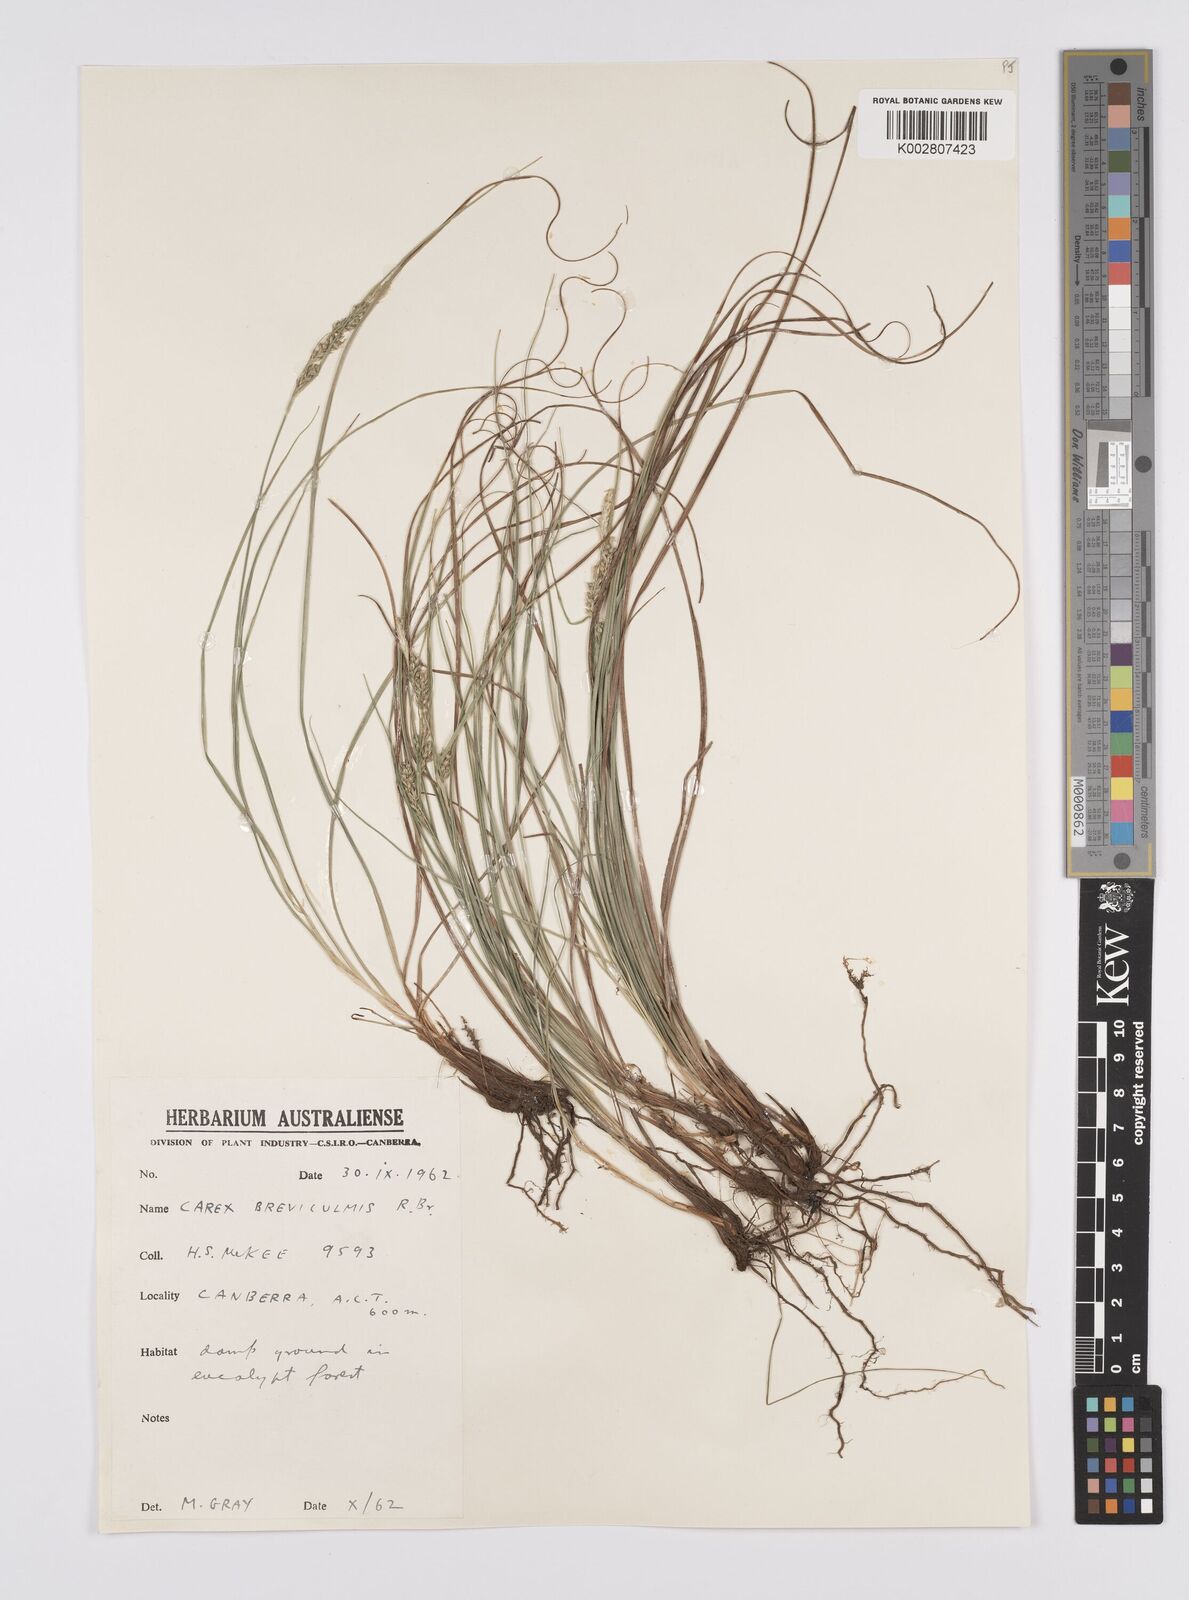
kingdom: Plantae
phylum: Tracheophyta
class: Liliopsida
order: Poales
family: Cyperaceae
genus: Carex
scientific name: Carex breviculmis
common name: Asian shortstem sedge
